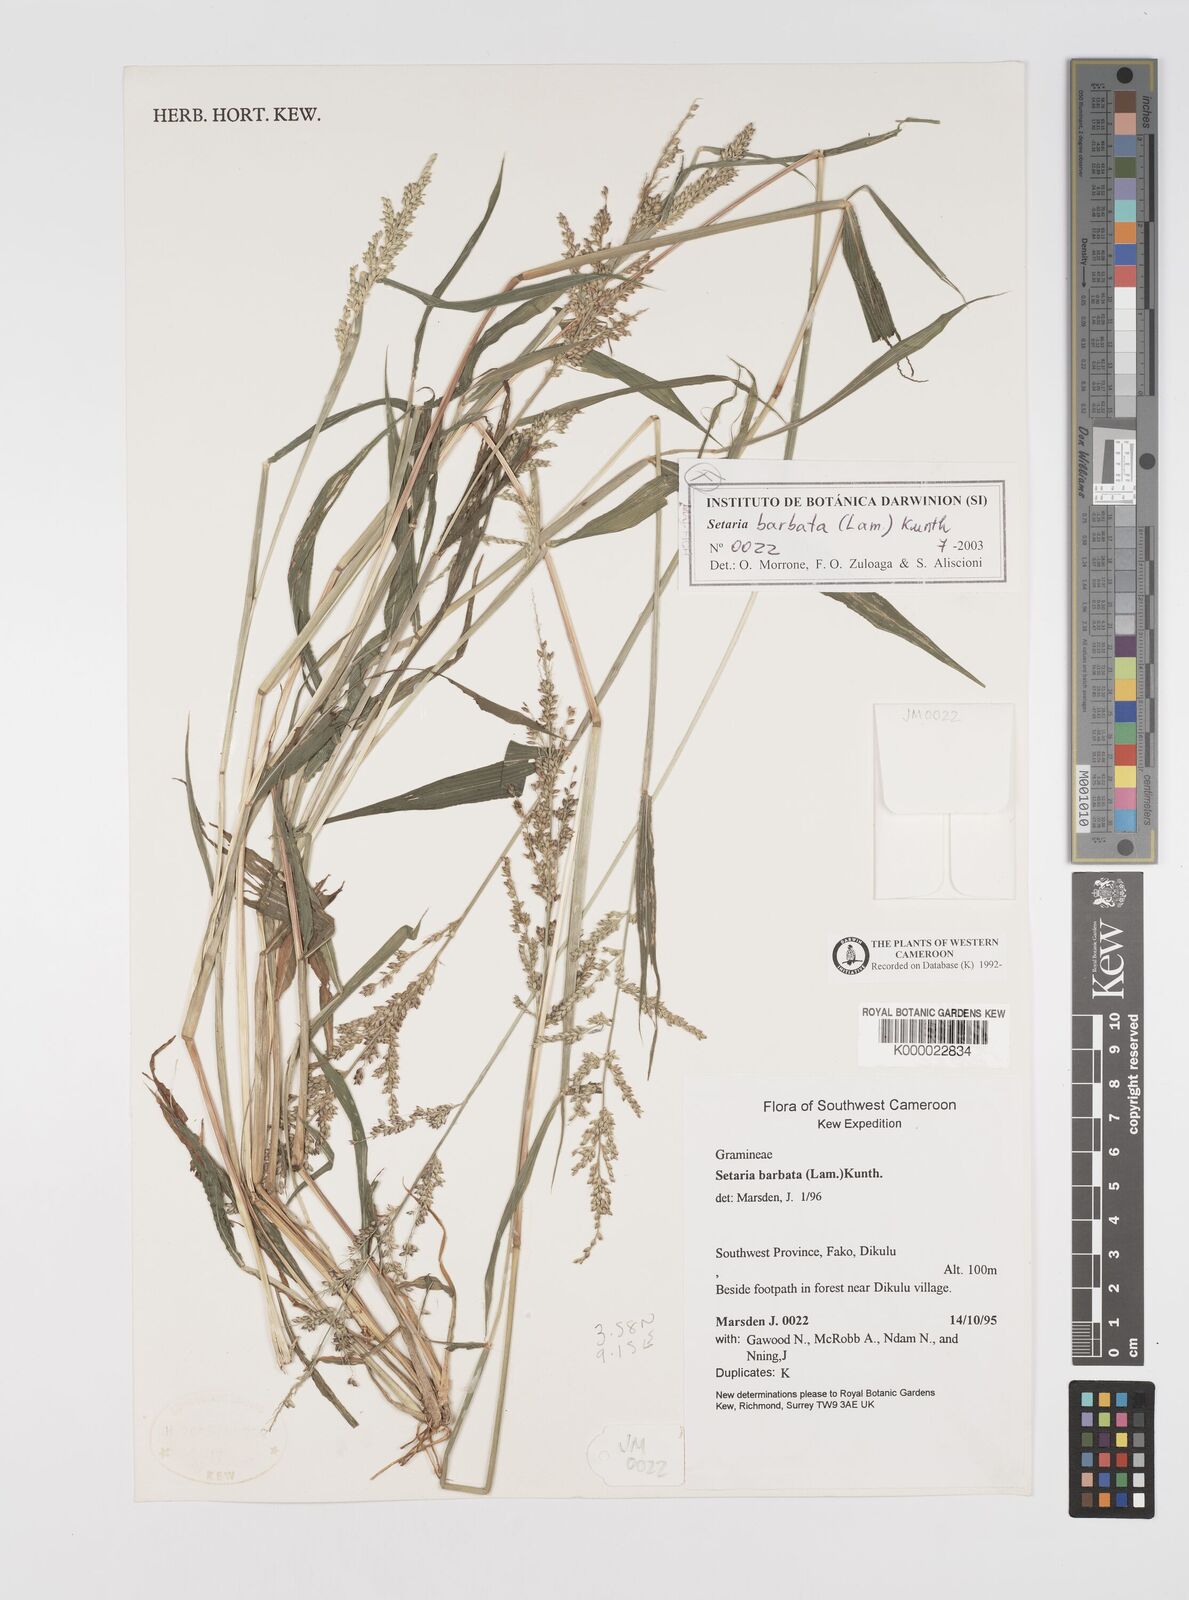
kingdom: Plantae
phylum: Tracheophyta
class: Liliopsida
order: Poales
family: Poaceae
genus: Setaria
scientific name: Setaria barbata
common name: East indian bristlegrass
